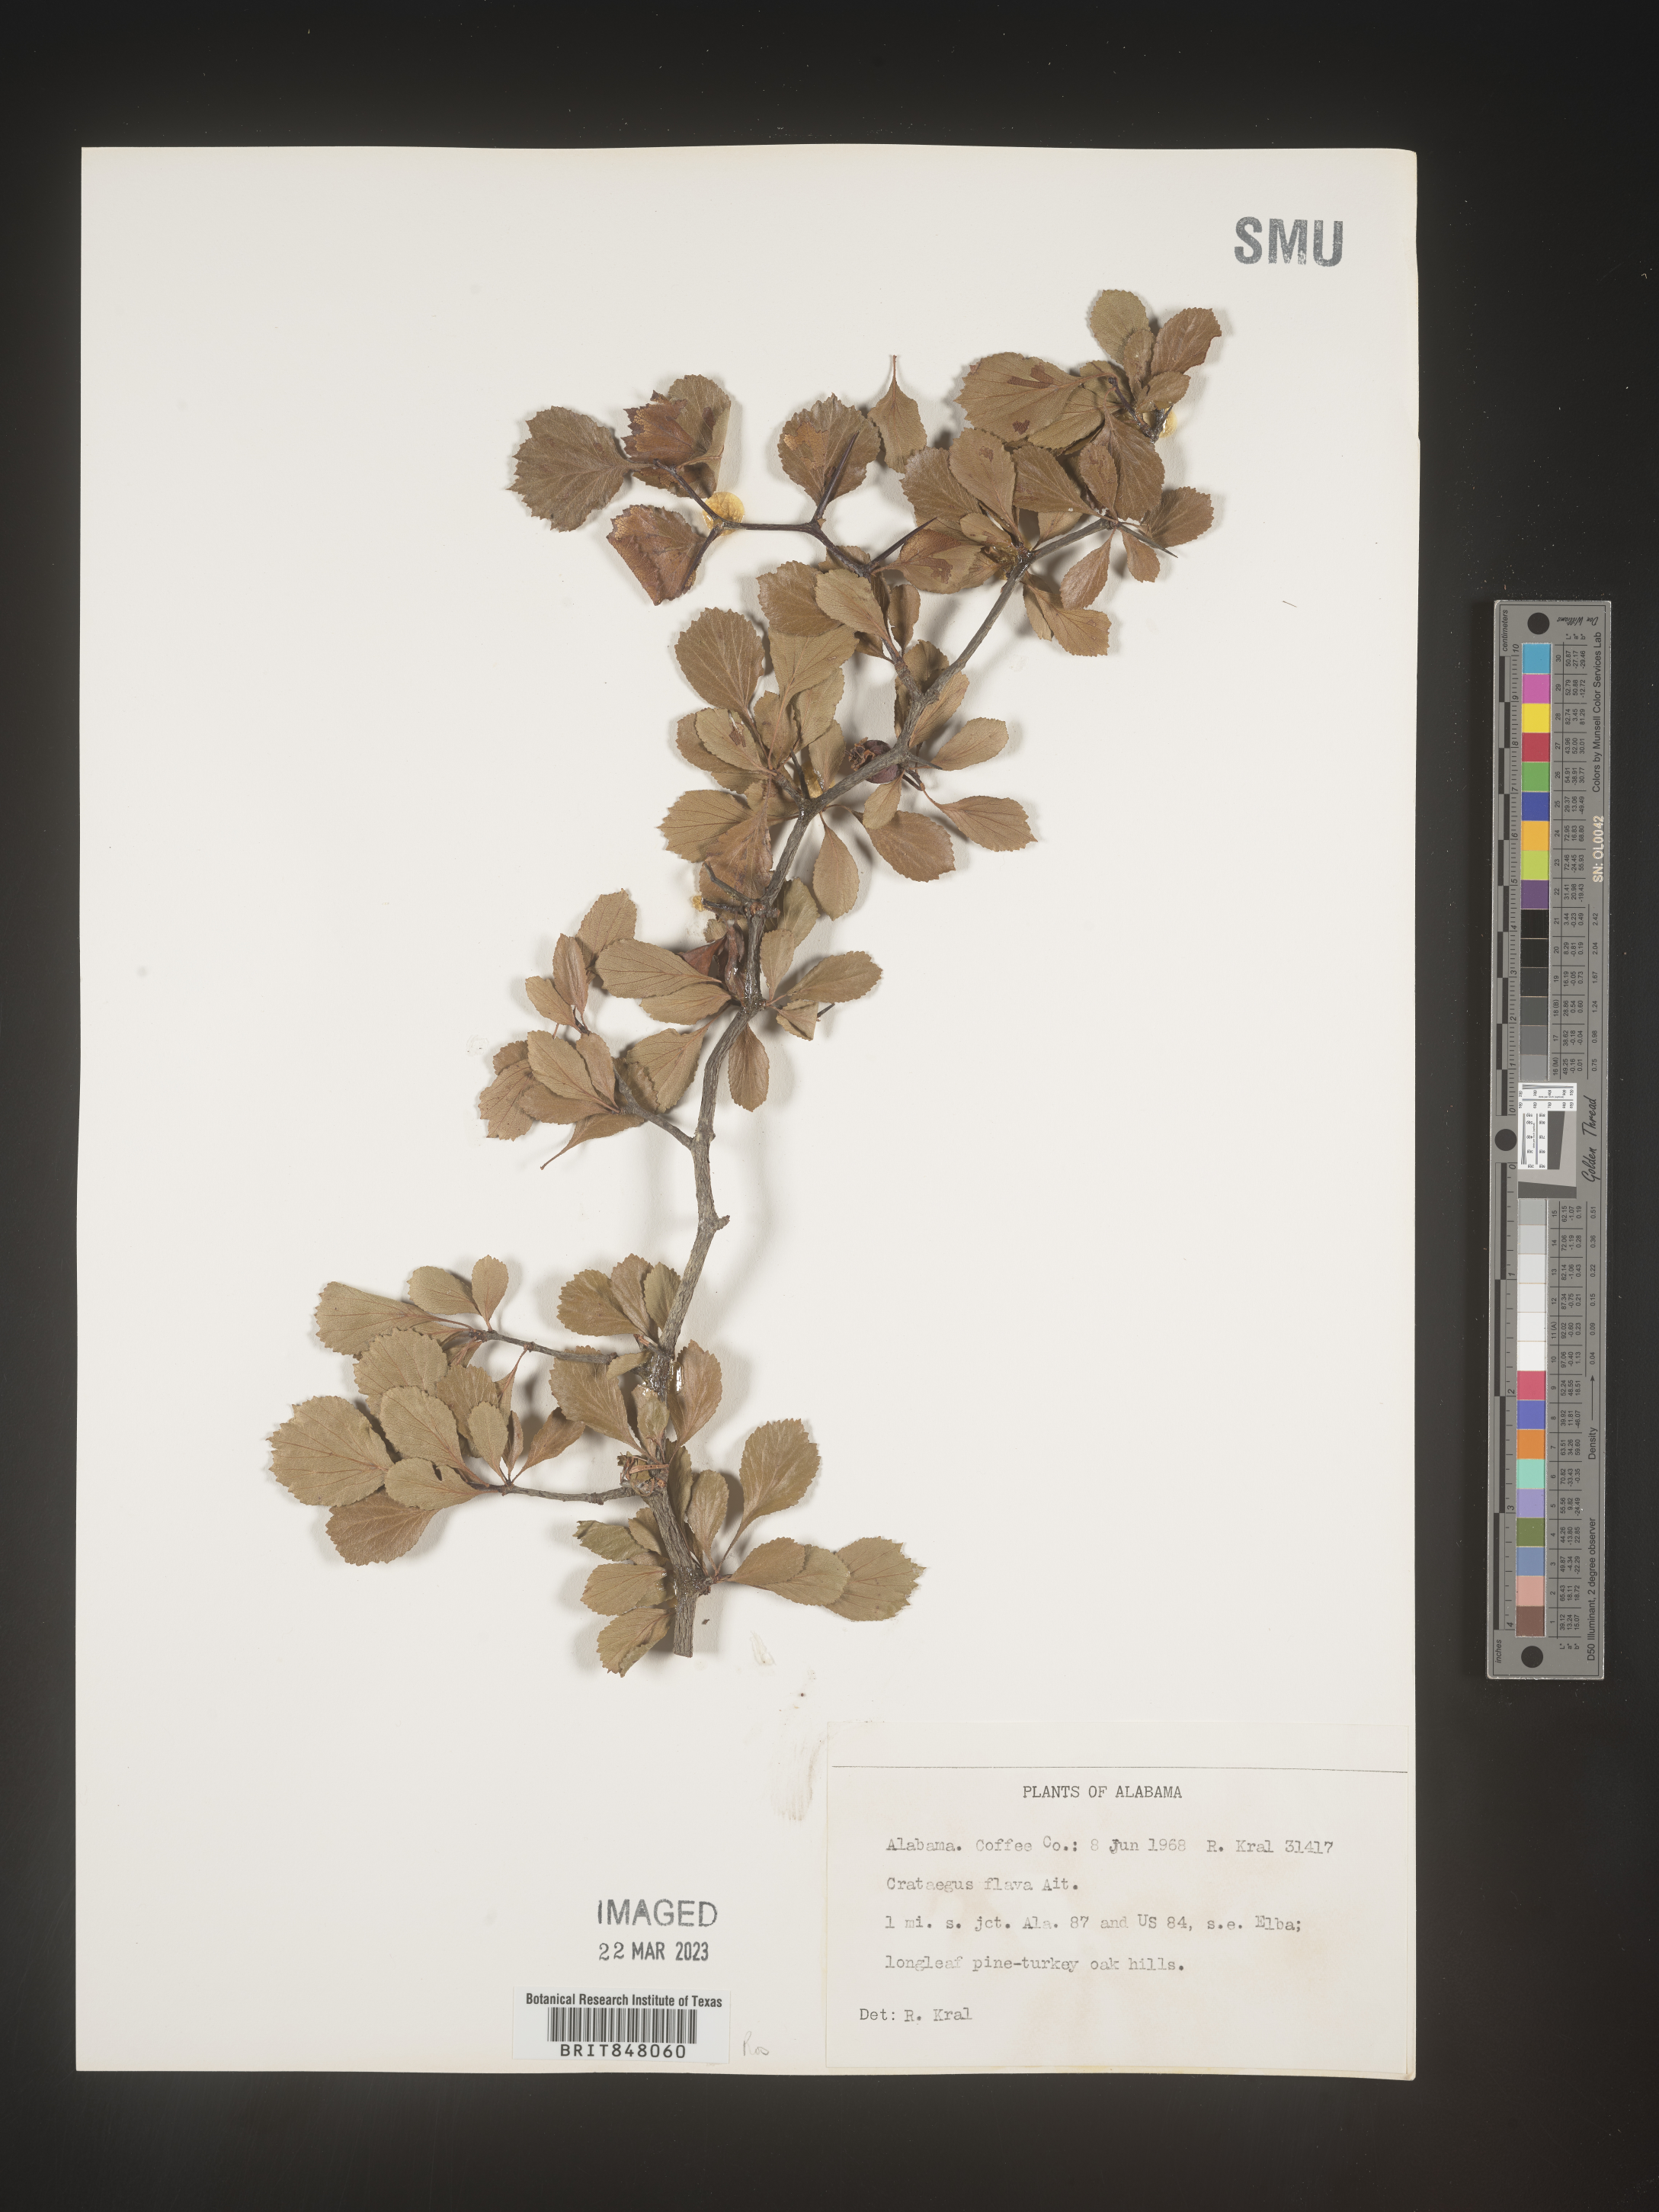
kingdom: Plantae
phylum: Tracheophyta
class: Magnoliopsida
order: Rosales
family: Rosaceae
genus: Crataegus
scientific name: Crataegus flava
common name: Yellow hawthorn
